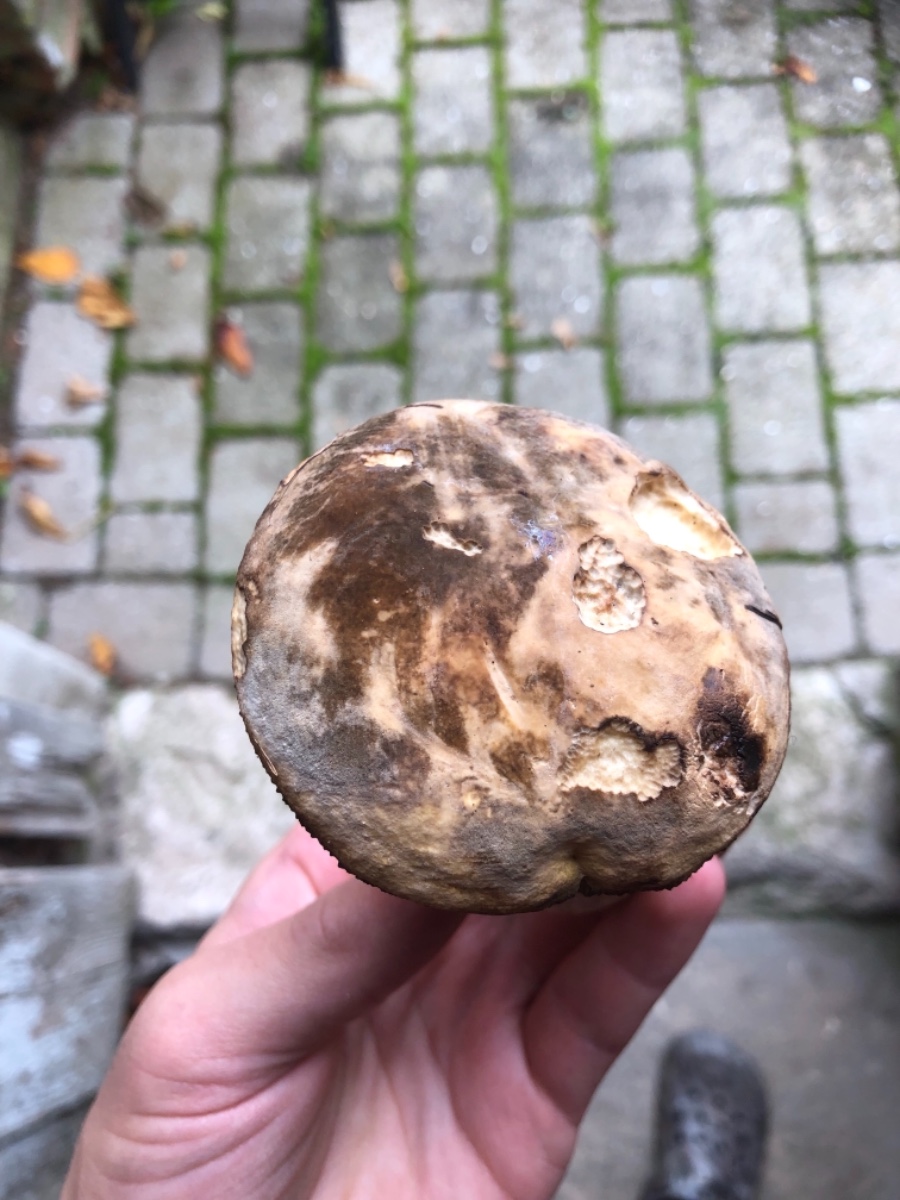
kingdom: Fungi
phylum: Basidiomycota
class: Agaricomycetes
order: Boletales
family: Boletaceae
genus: Porphyrellus
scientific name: Porphyrellus porphyrosporus
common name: sodrørhat
